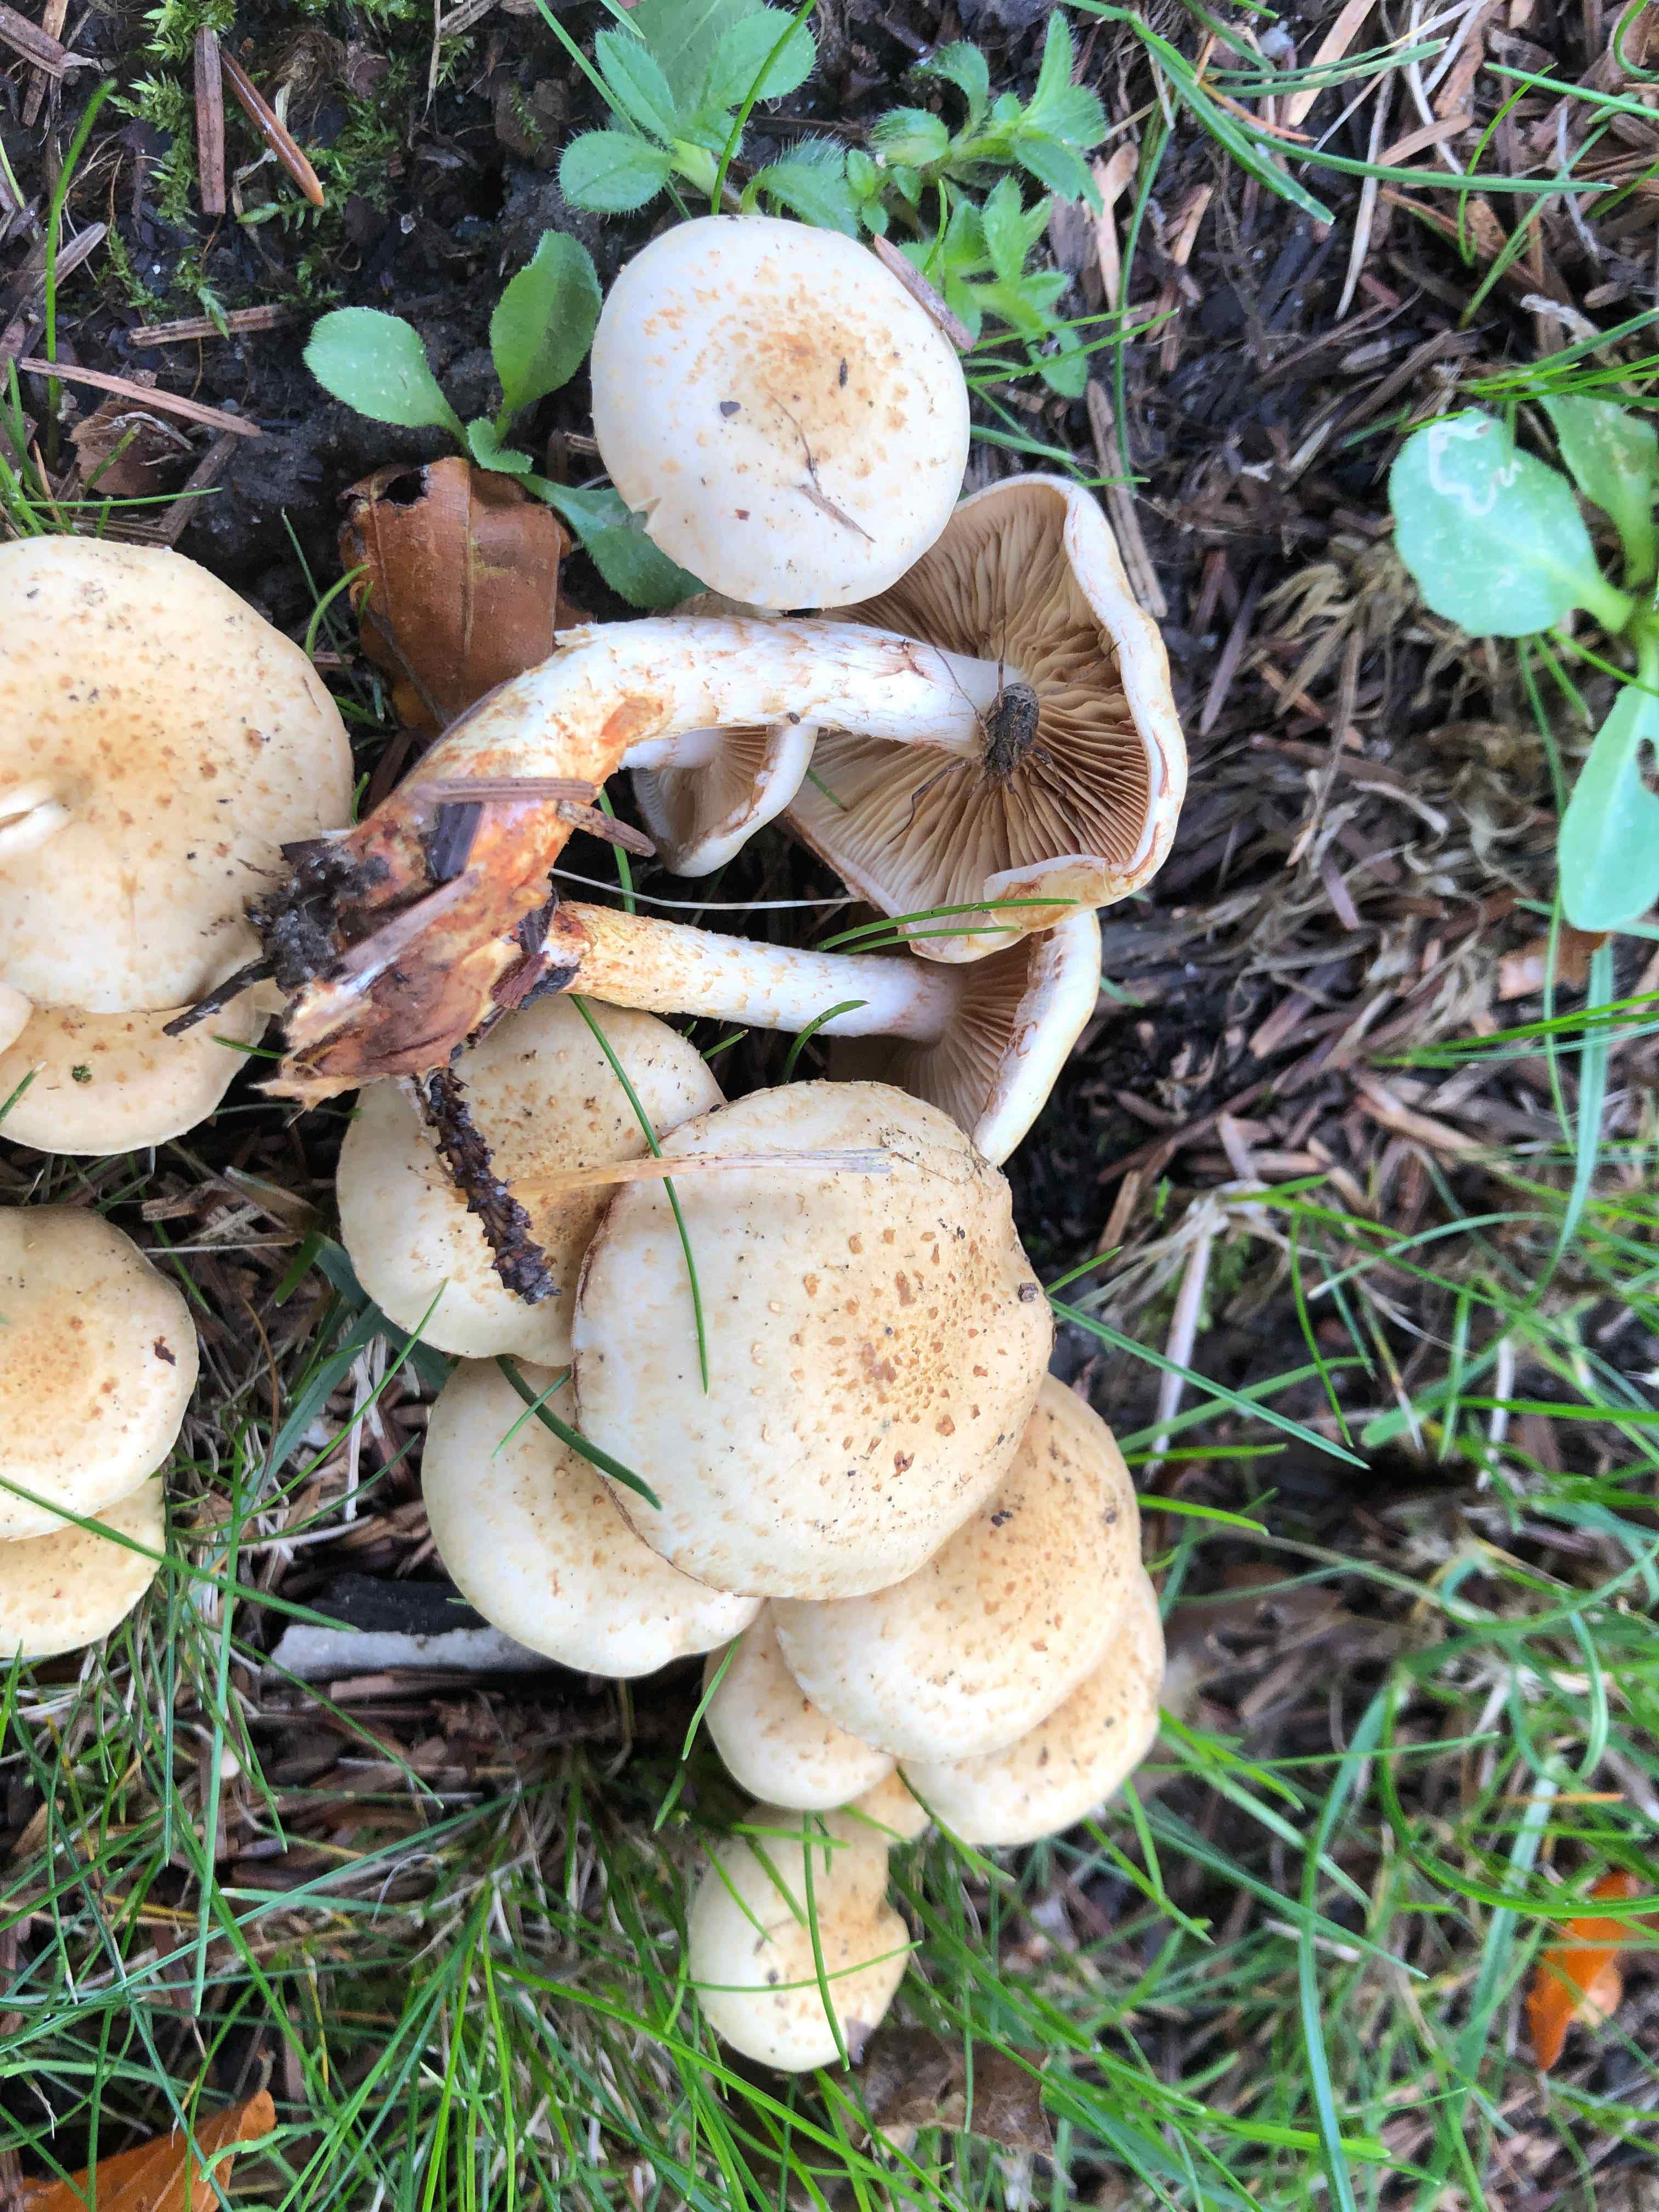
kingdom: Fungi
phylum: Basidiomycota
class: Agaricomycetes
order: Agaricales
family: Strophariaceae
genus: Pholiota
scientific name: Pholiota gummosa
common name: grøngul skælhat
